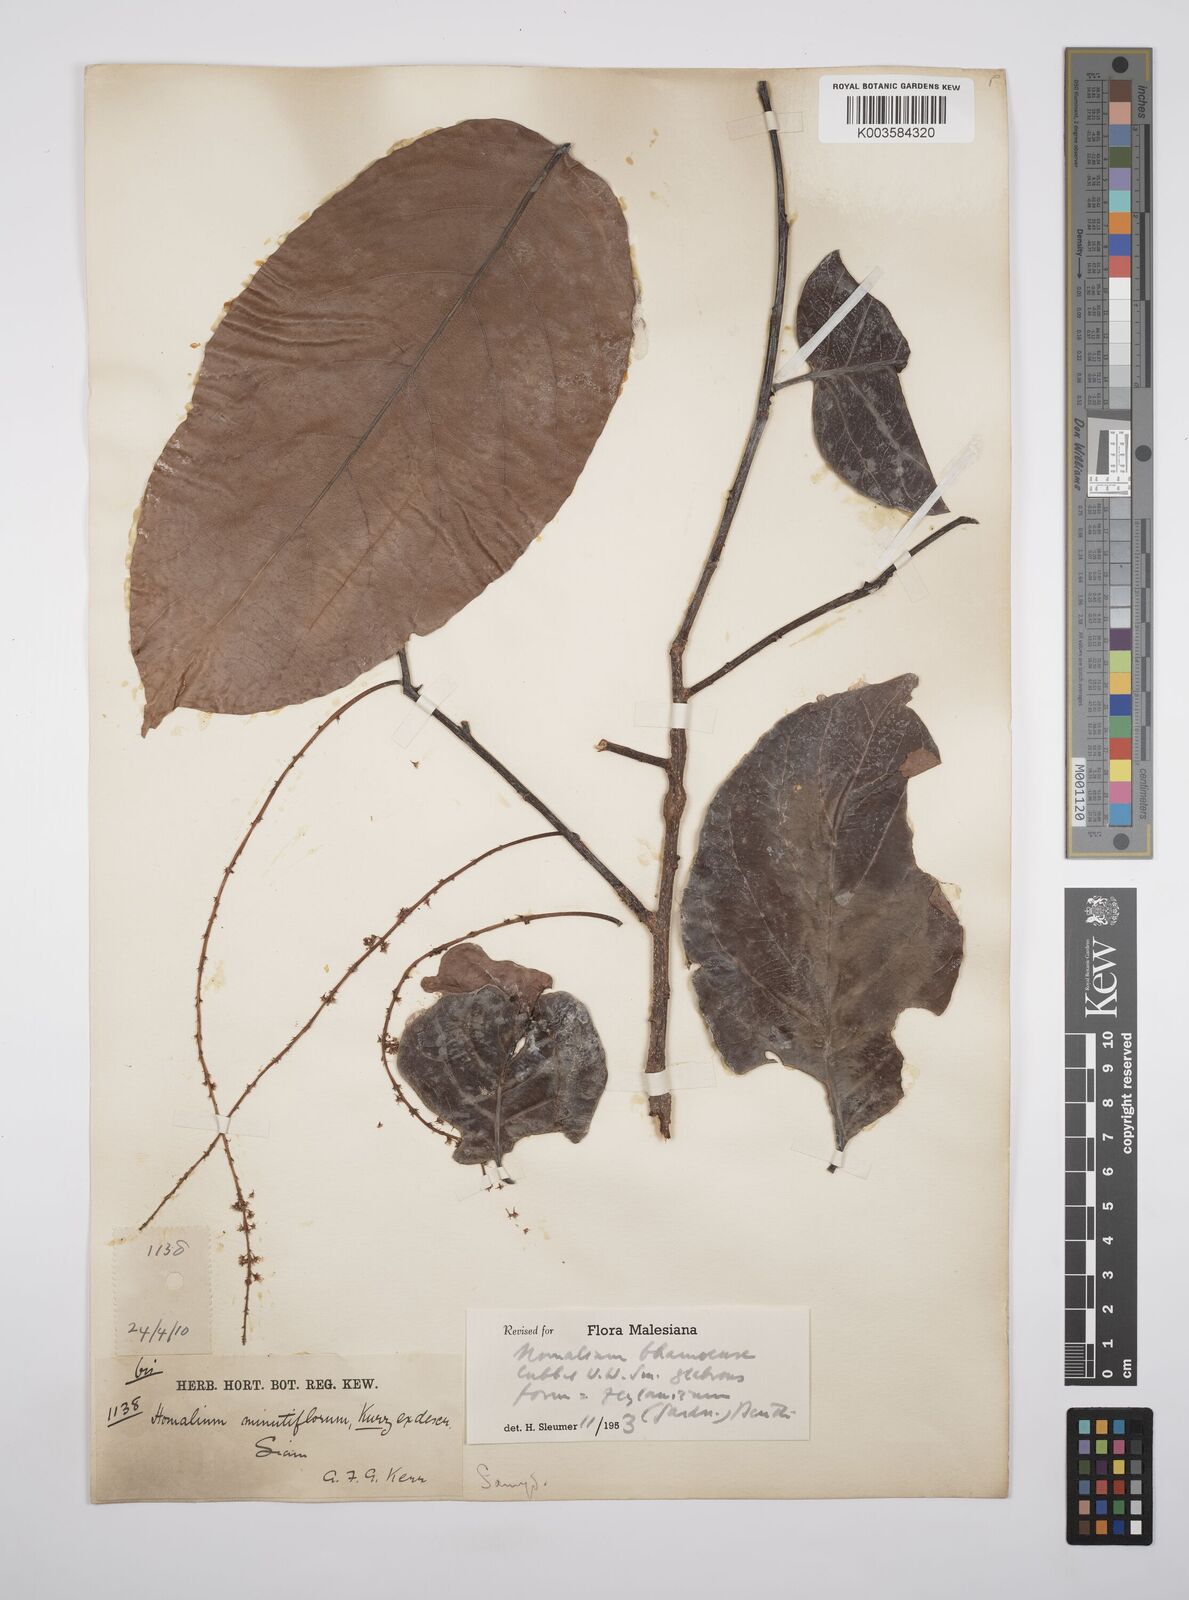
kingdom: Plantae
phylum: Tracheophyta
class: Magnoliopsida
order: Malpighiales
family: Salicaceae
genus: Homalium
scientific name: Homalium ceylanicum
